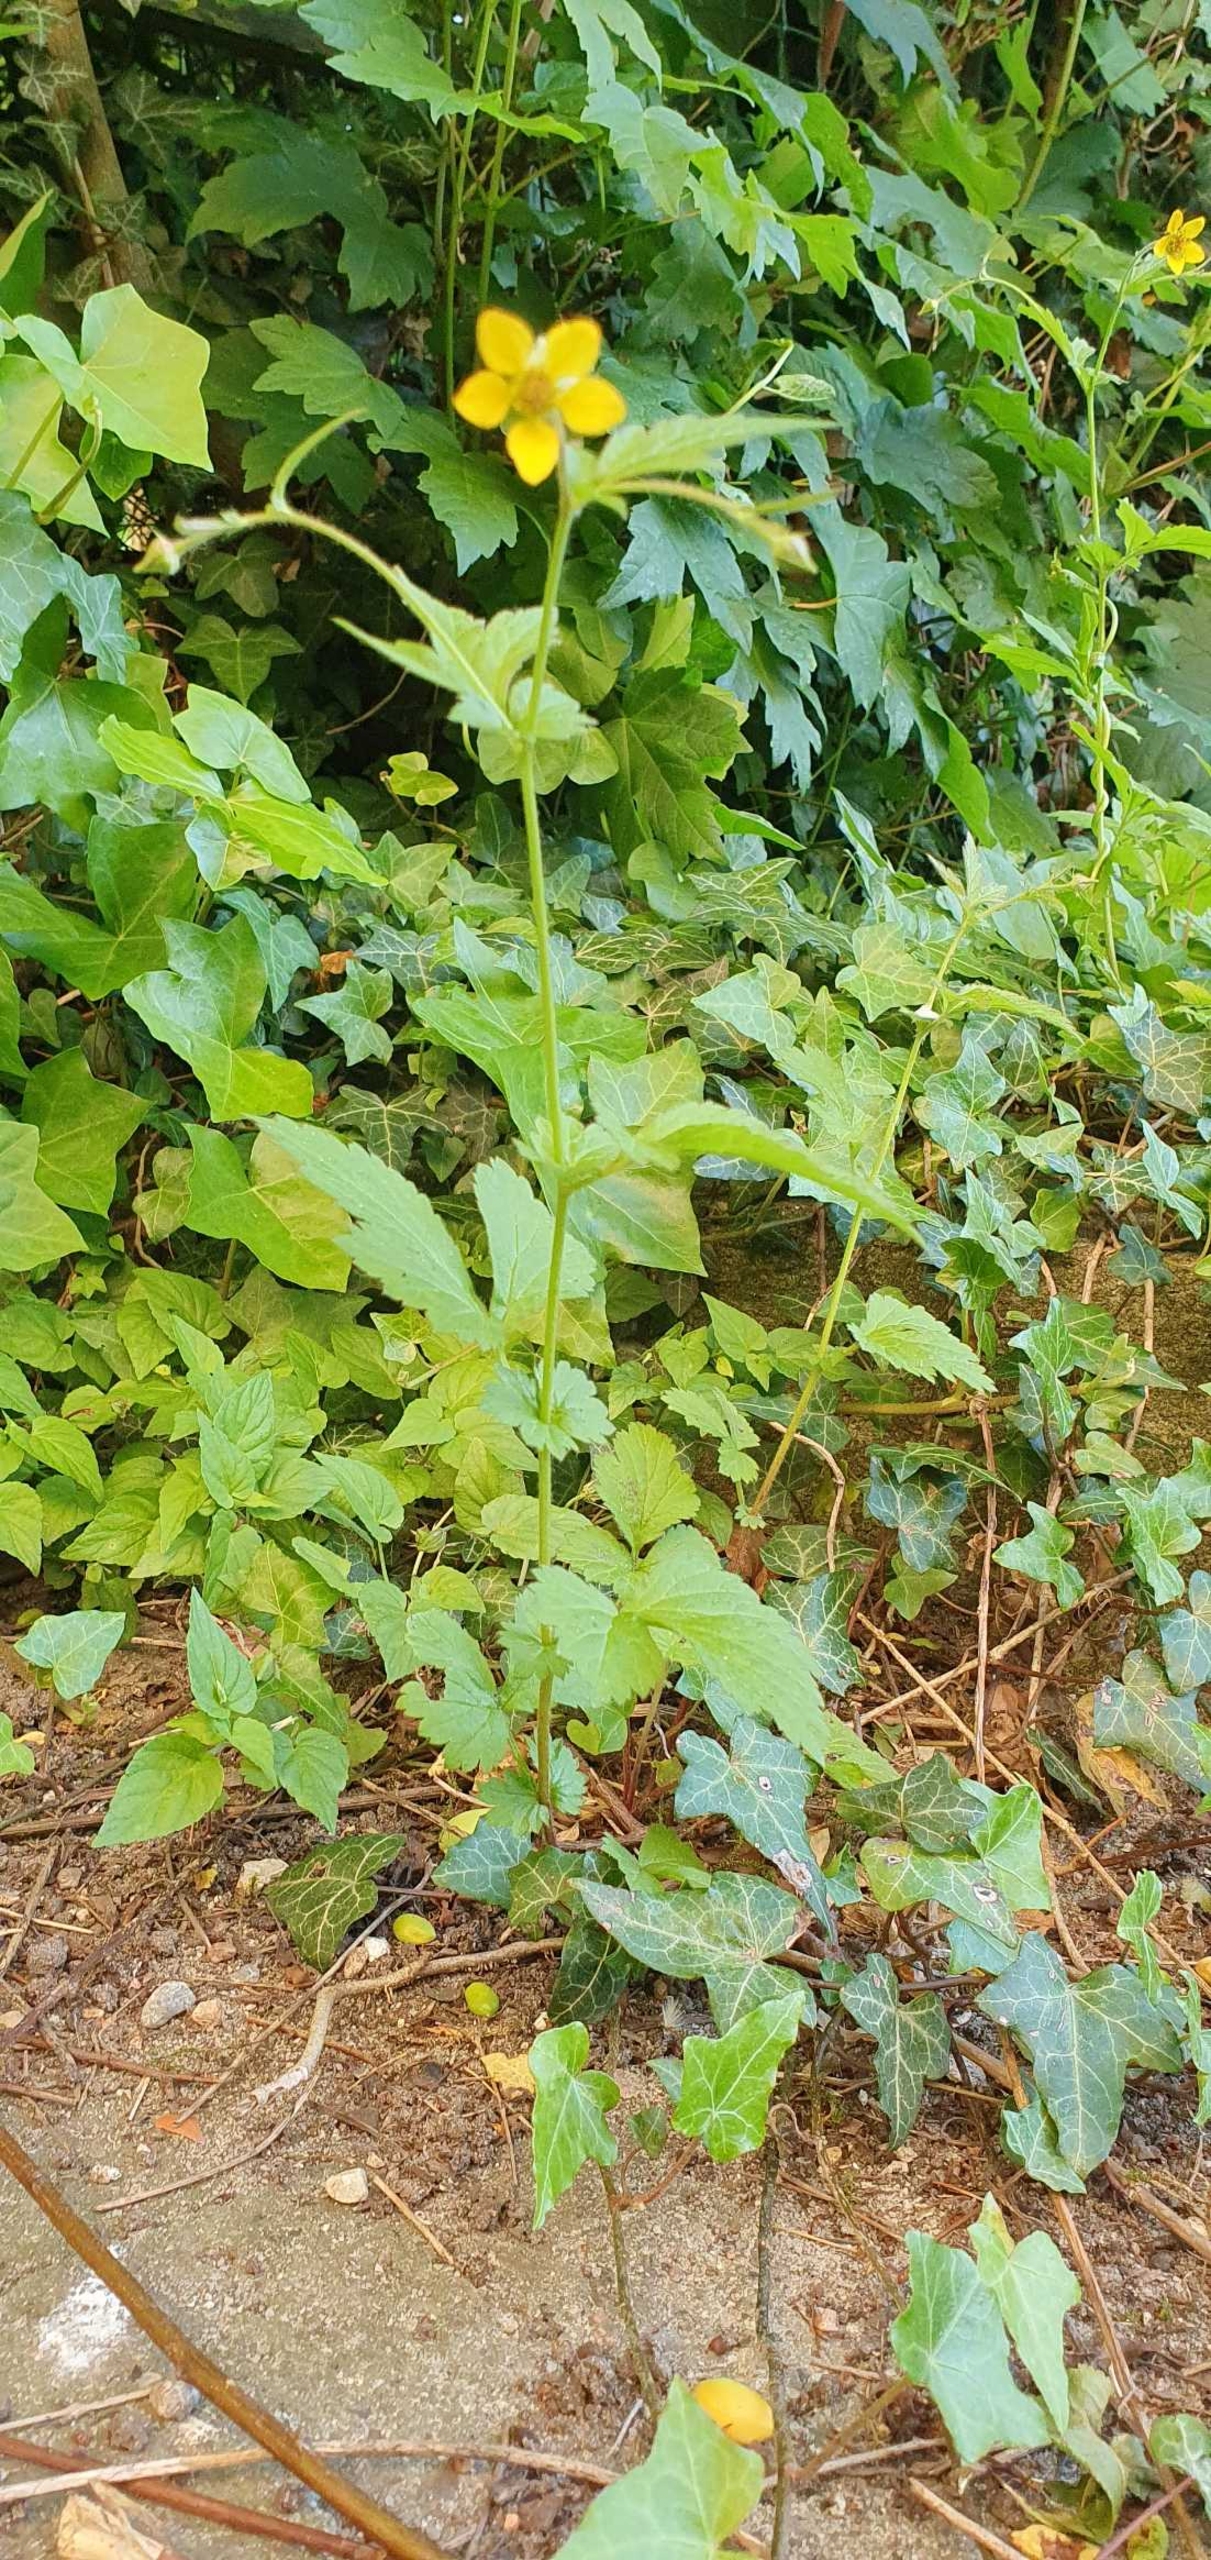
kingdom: Plantae
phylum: Tracheophyta
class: Magnoliopsida
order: Rosales
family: Rosaceae
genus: Geum
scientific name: Geum urbanum
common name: Feber-nellikerod
